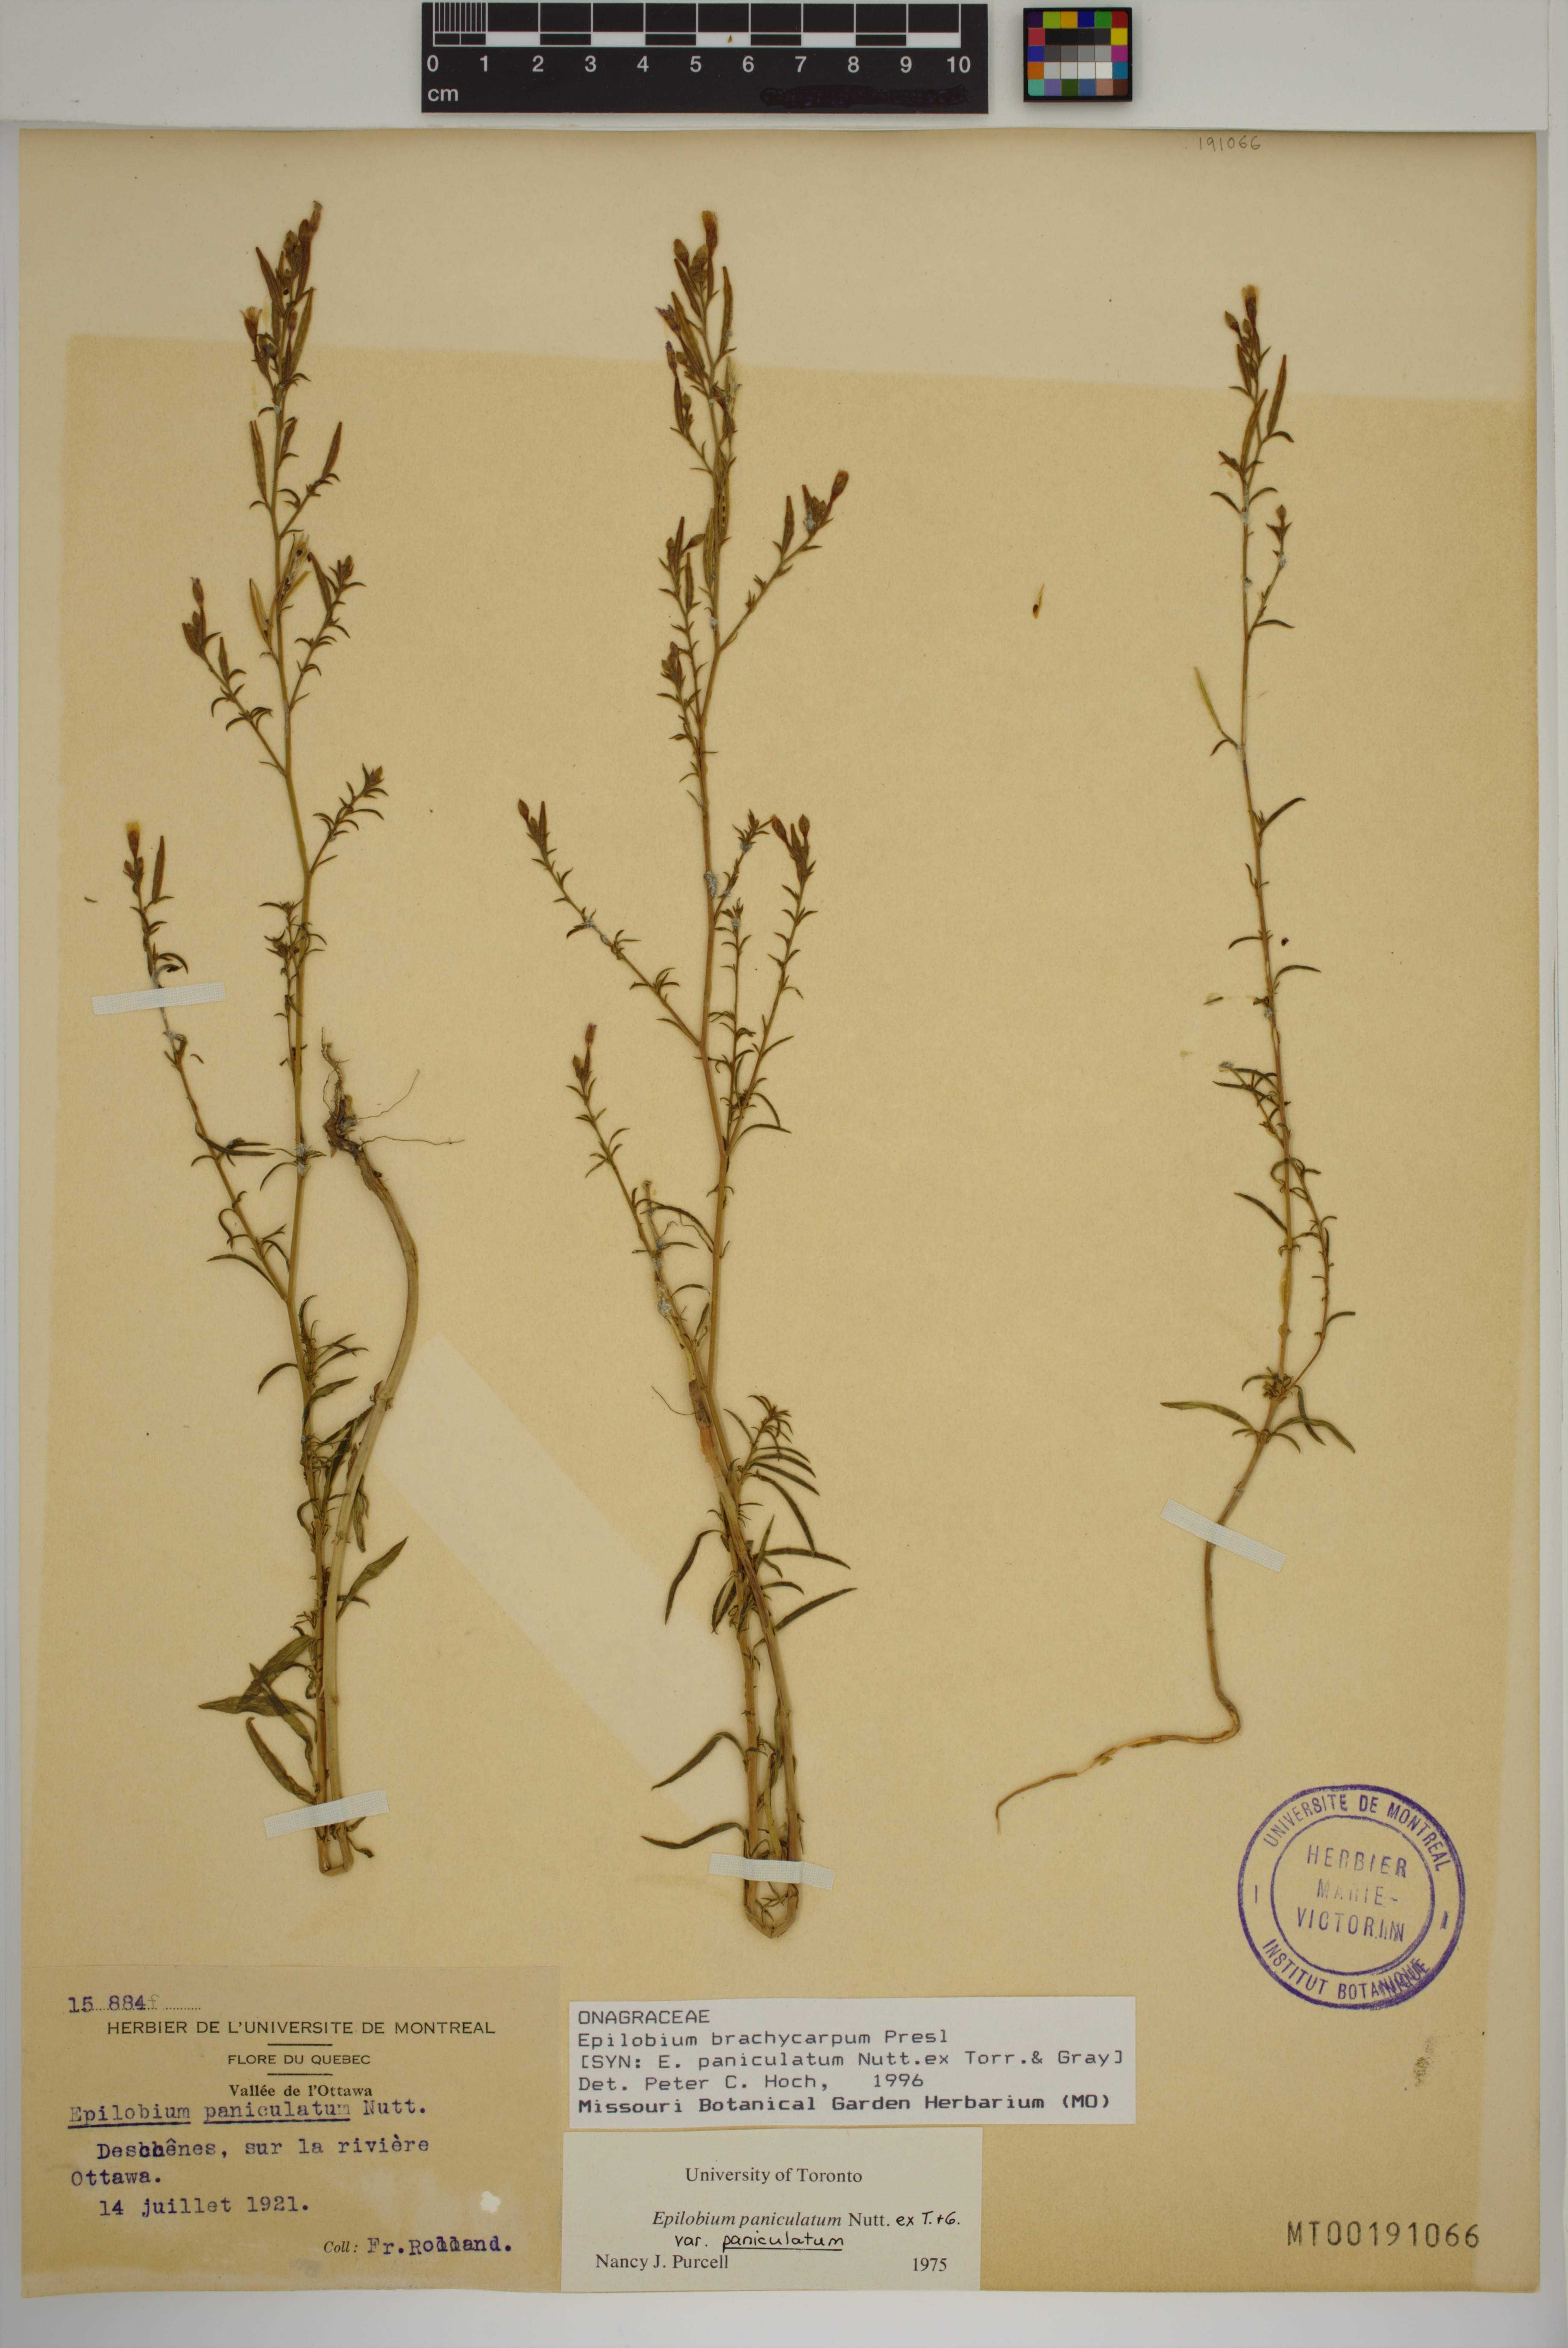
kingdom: Plantae
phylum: Tracheophyta
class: Magnoliopsida
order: Myrtales
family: Onagraceae
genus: Epilobium
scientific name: Epilobium brachycarpum
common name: Annual willowherb
